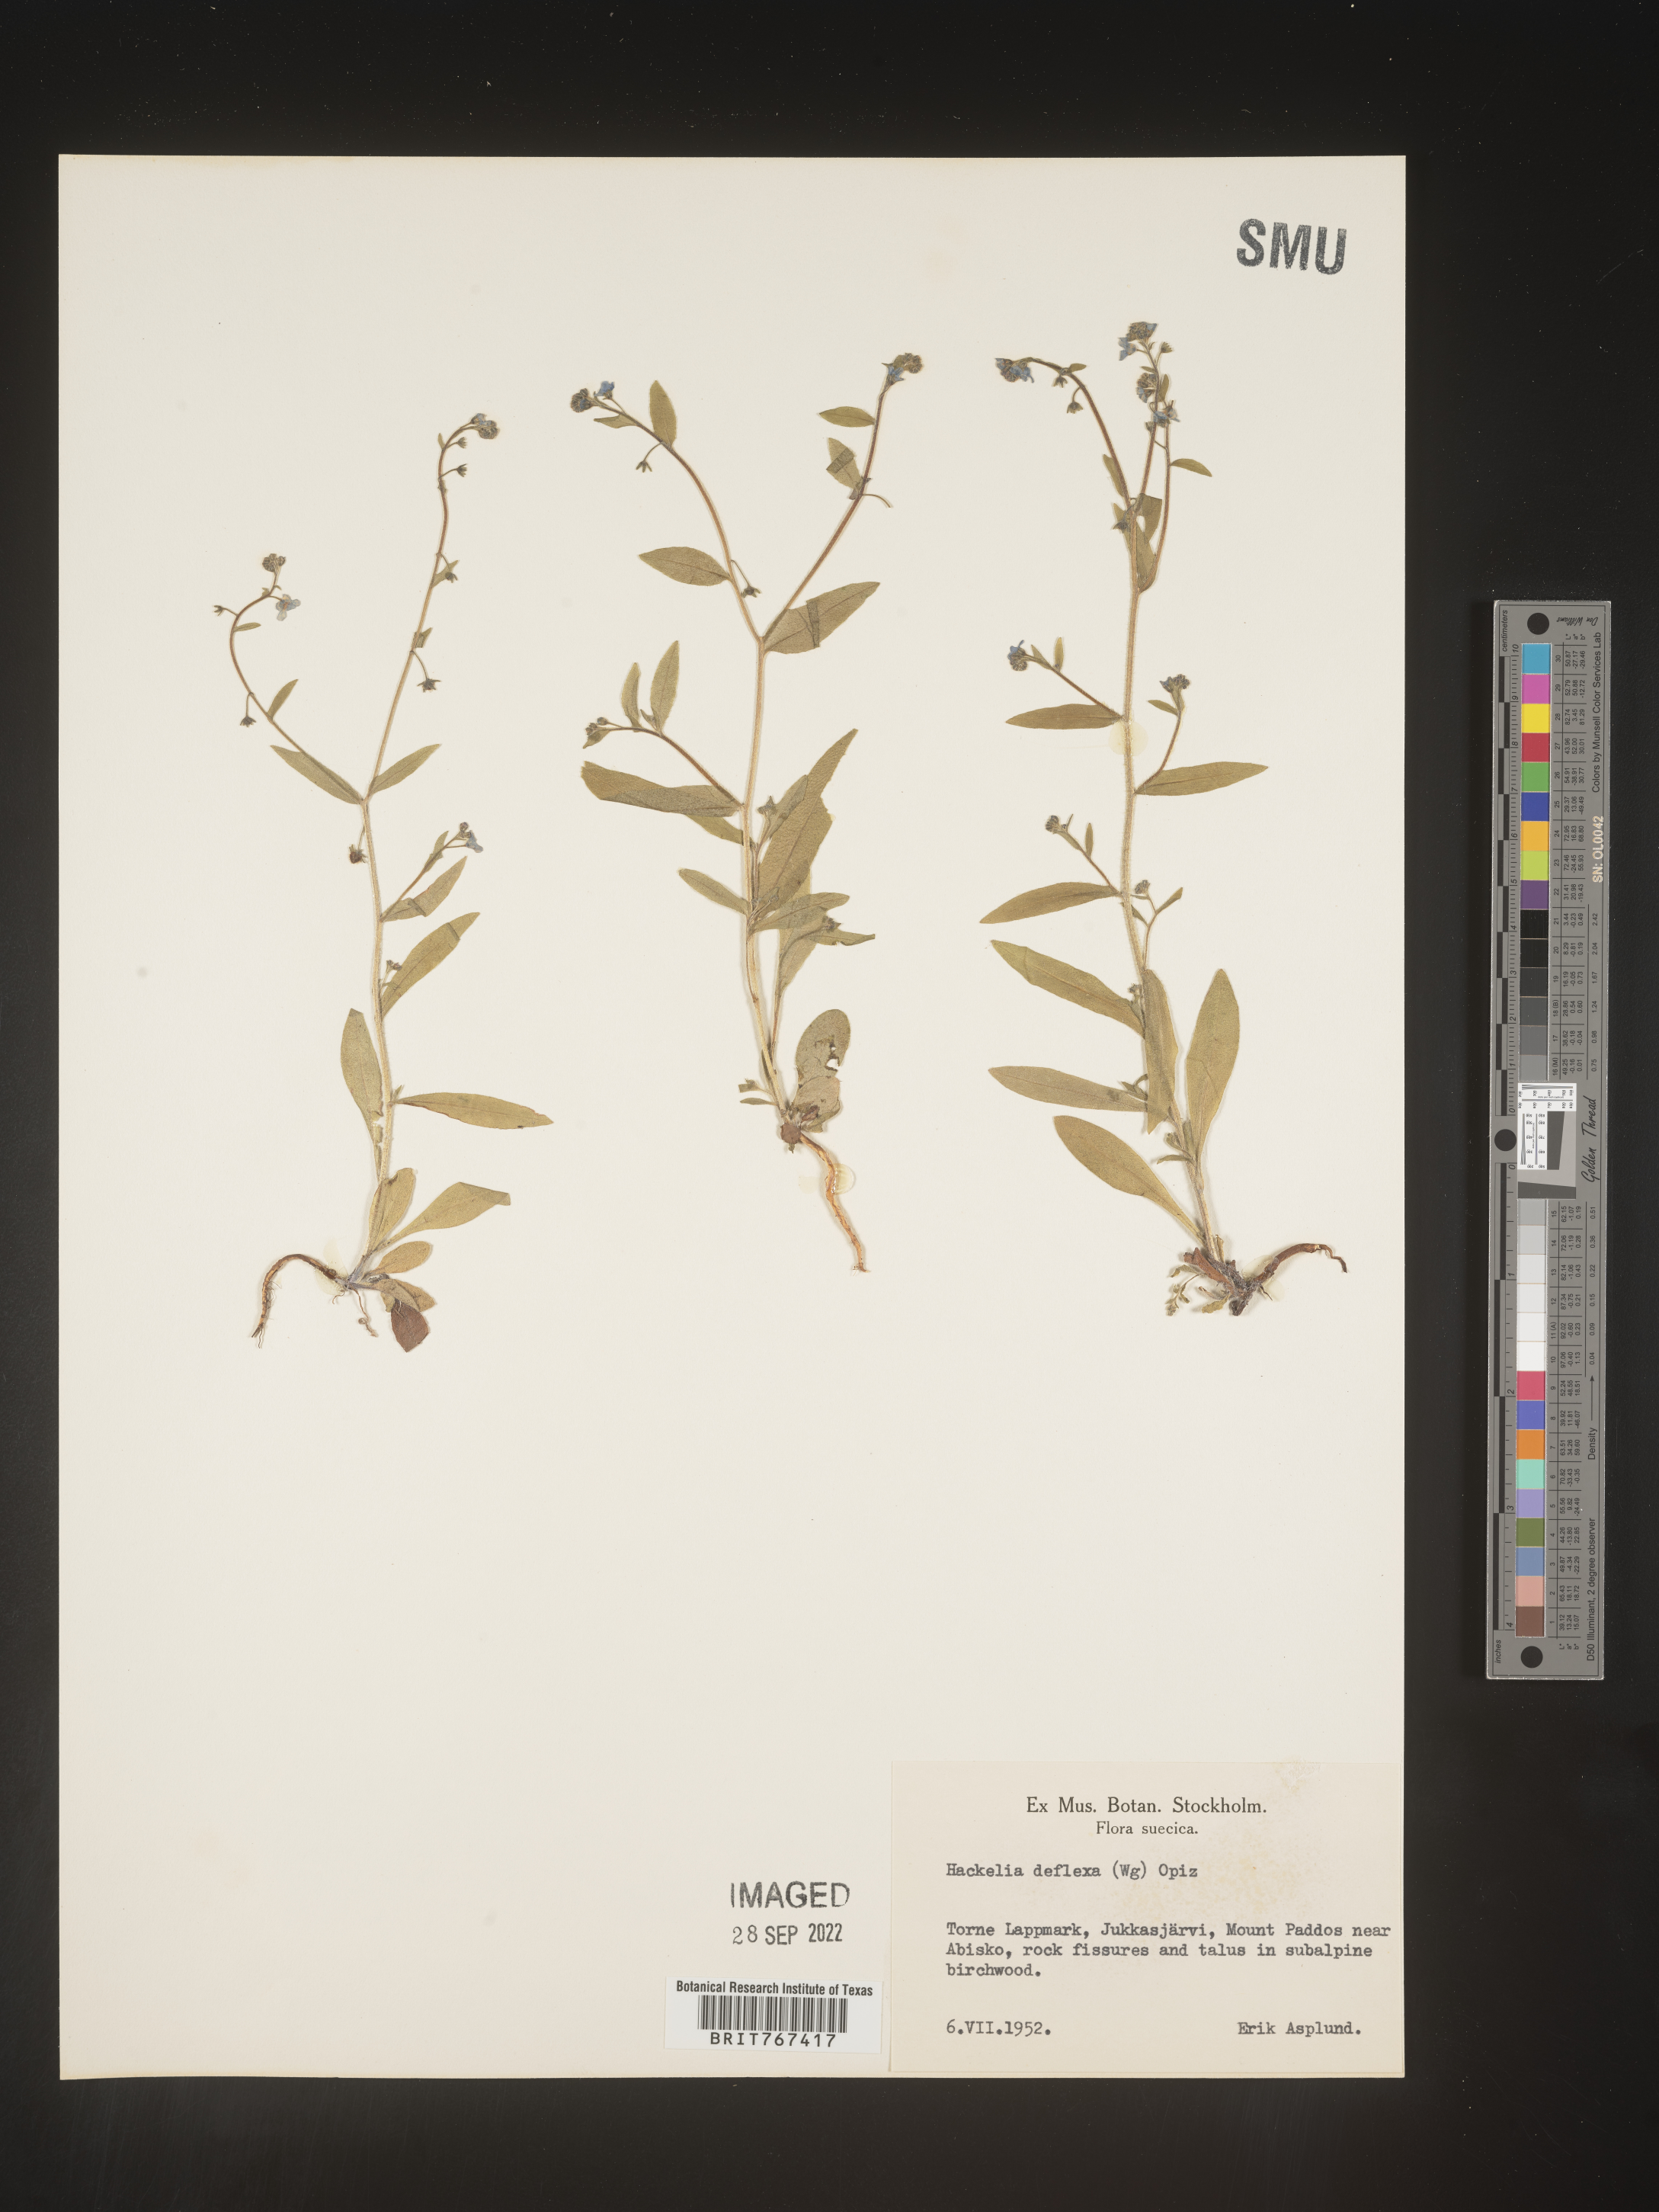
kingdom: Plantae
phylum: Tracheophyta
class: Magnoliopsida
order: Boraginales
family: Boraginaceae
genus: Hackelia
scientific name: Hackelia
